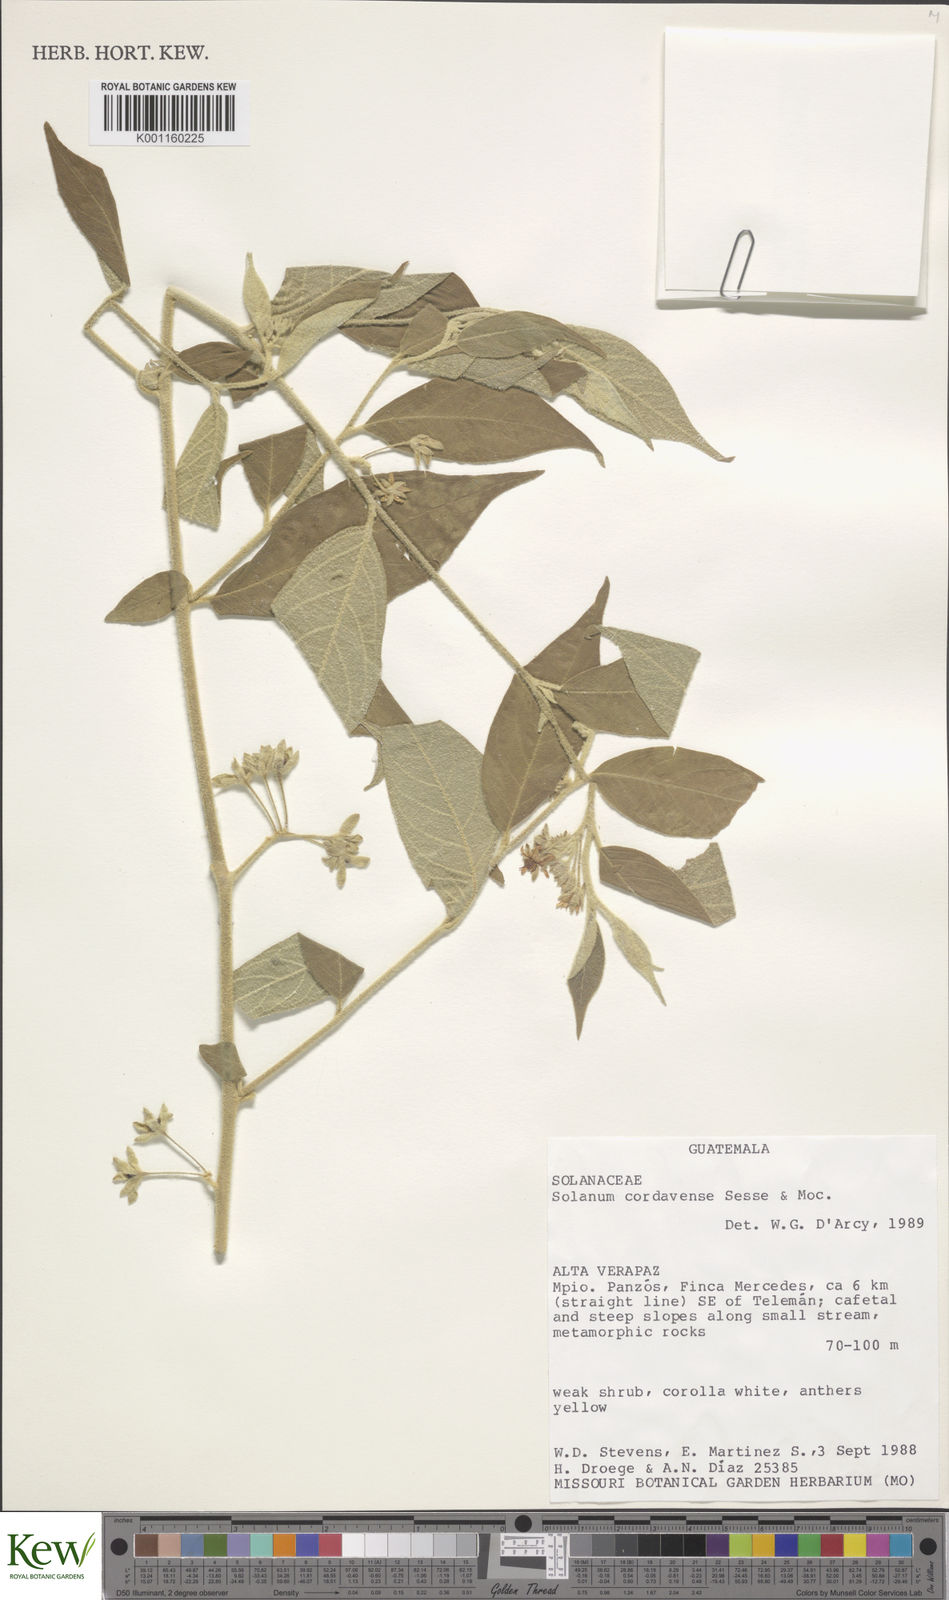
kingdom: Plantae
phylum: Tracheophyta
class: Magnoliopsida
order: Solanales
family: Solanaceae
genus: Solanum
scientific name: Solanum
